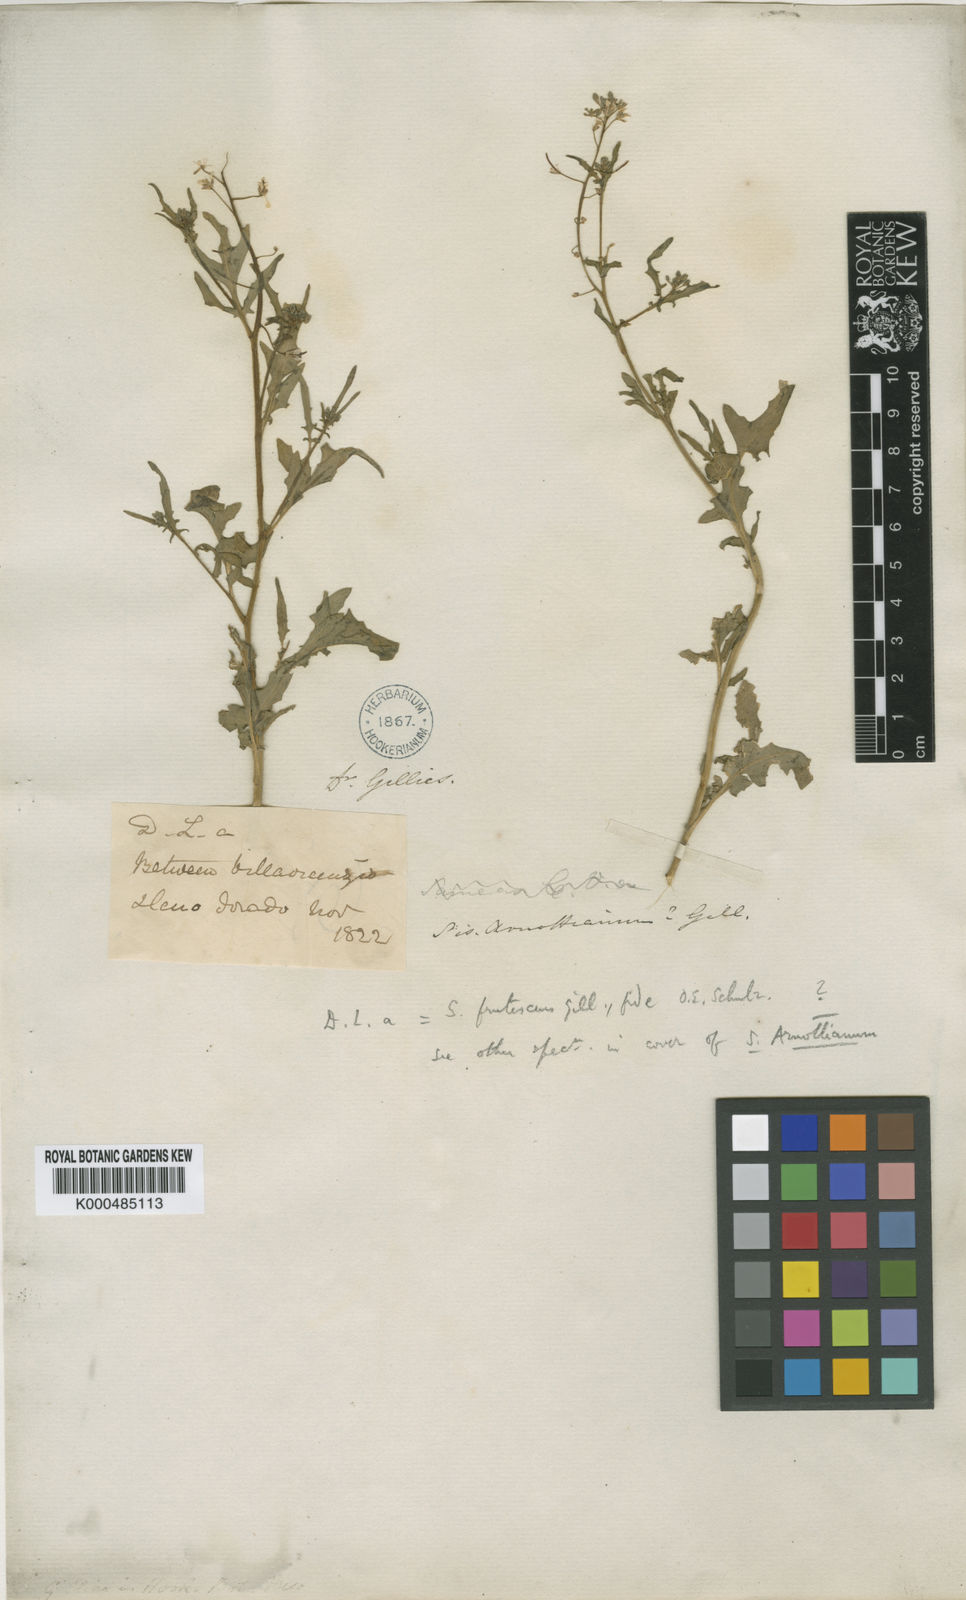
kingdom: Plantae
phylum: Tracheophyta
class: Magnoliopsida
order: Brassicales
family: Brassicaceae
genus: Neuontobotrys
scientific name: Neuontobotrys frutescens
